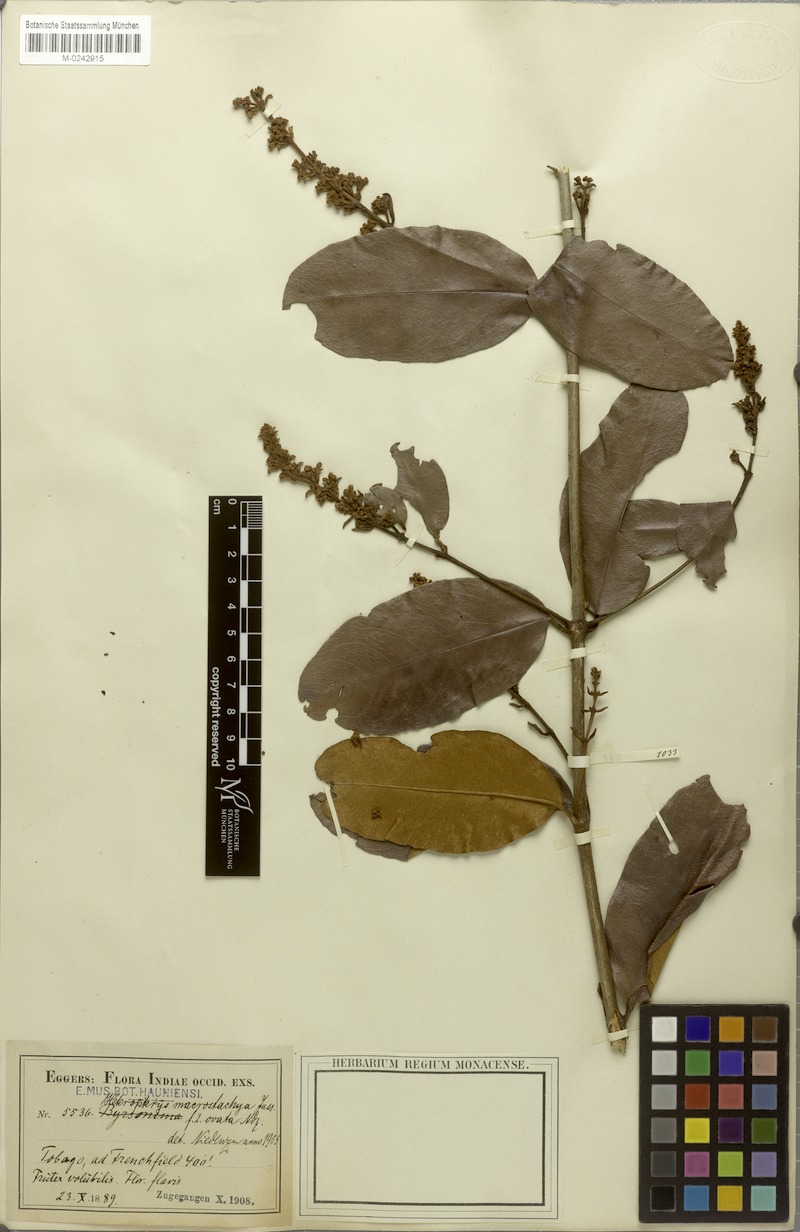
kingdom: Plantae
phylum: Tracheophyta
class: Magnoliopsida
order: Malpighiales
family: Malpighiaceae
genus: Heteropterys
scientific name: Heteropterys macrostachya
